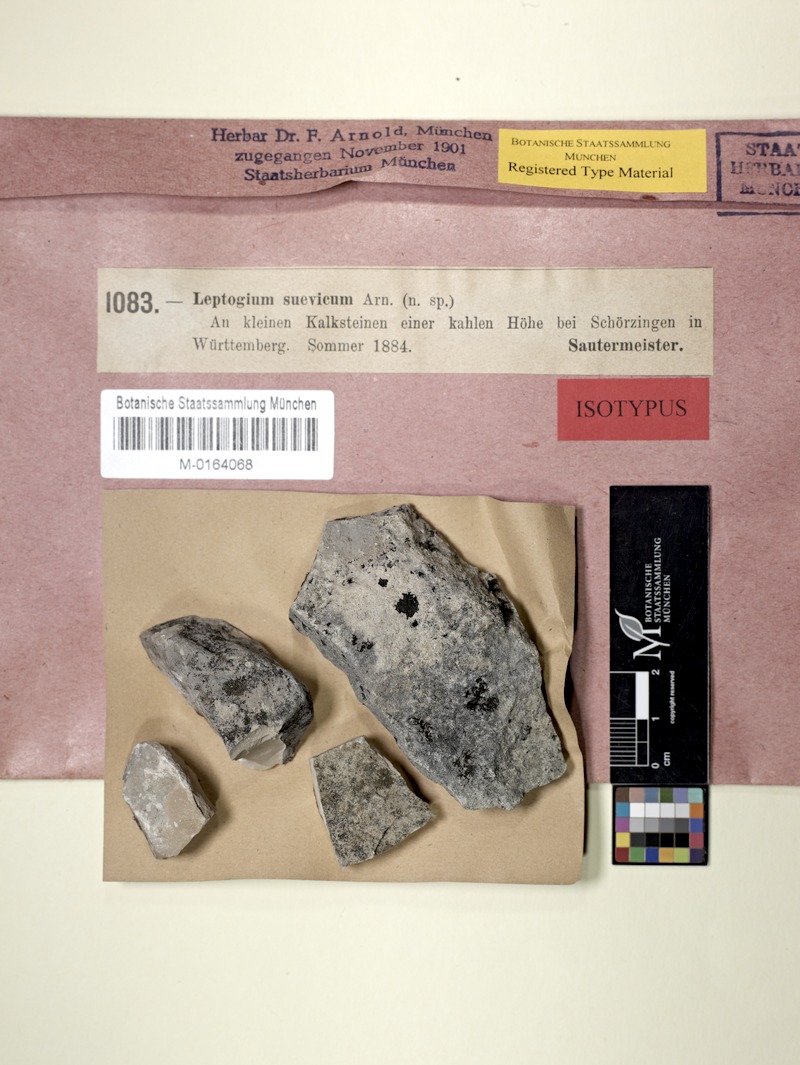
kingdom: Fungi
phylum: Ascomycota
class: Lecanoromycetes
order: Peltigerales
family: Collemataceae
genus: Scytinium
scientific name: Scytinium massiliense
